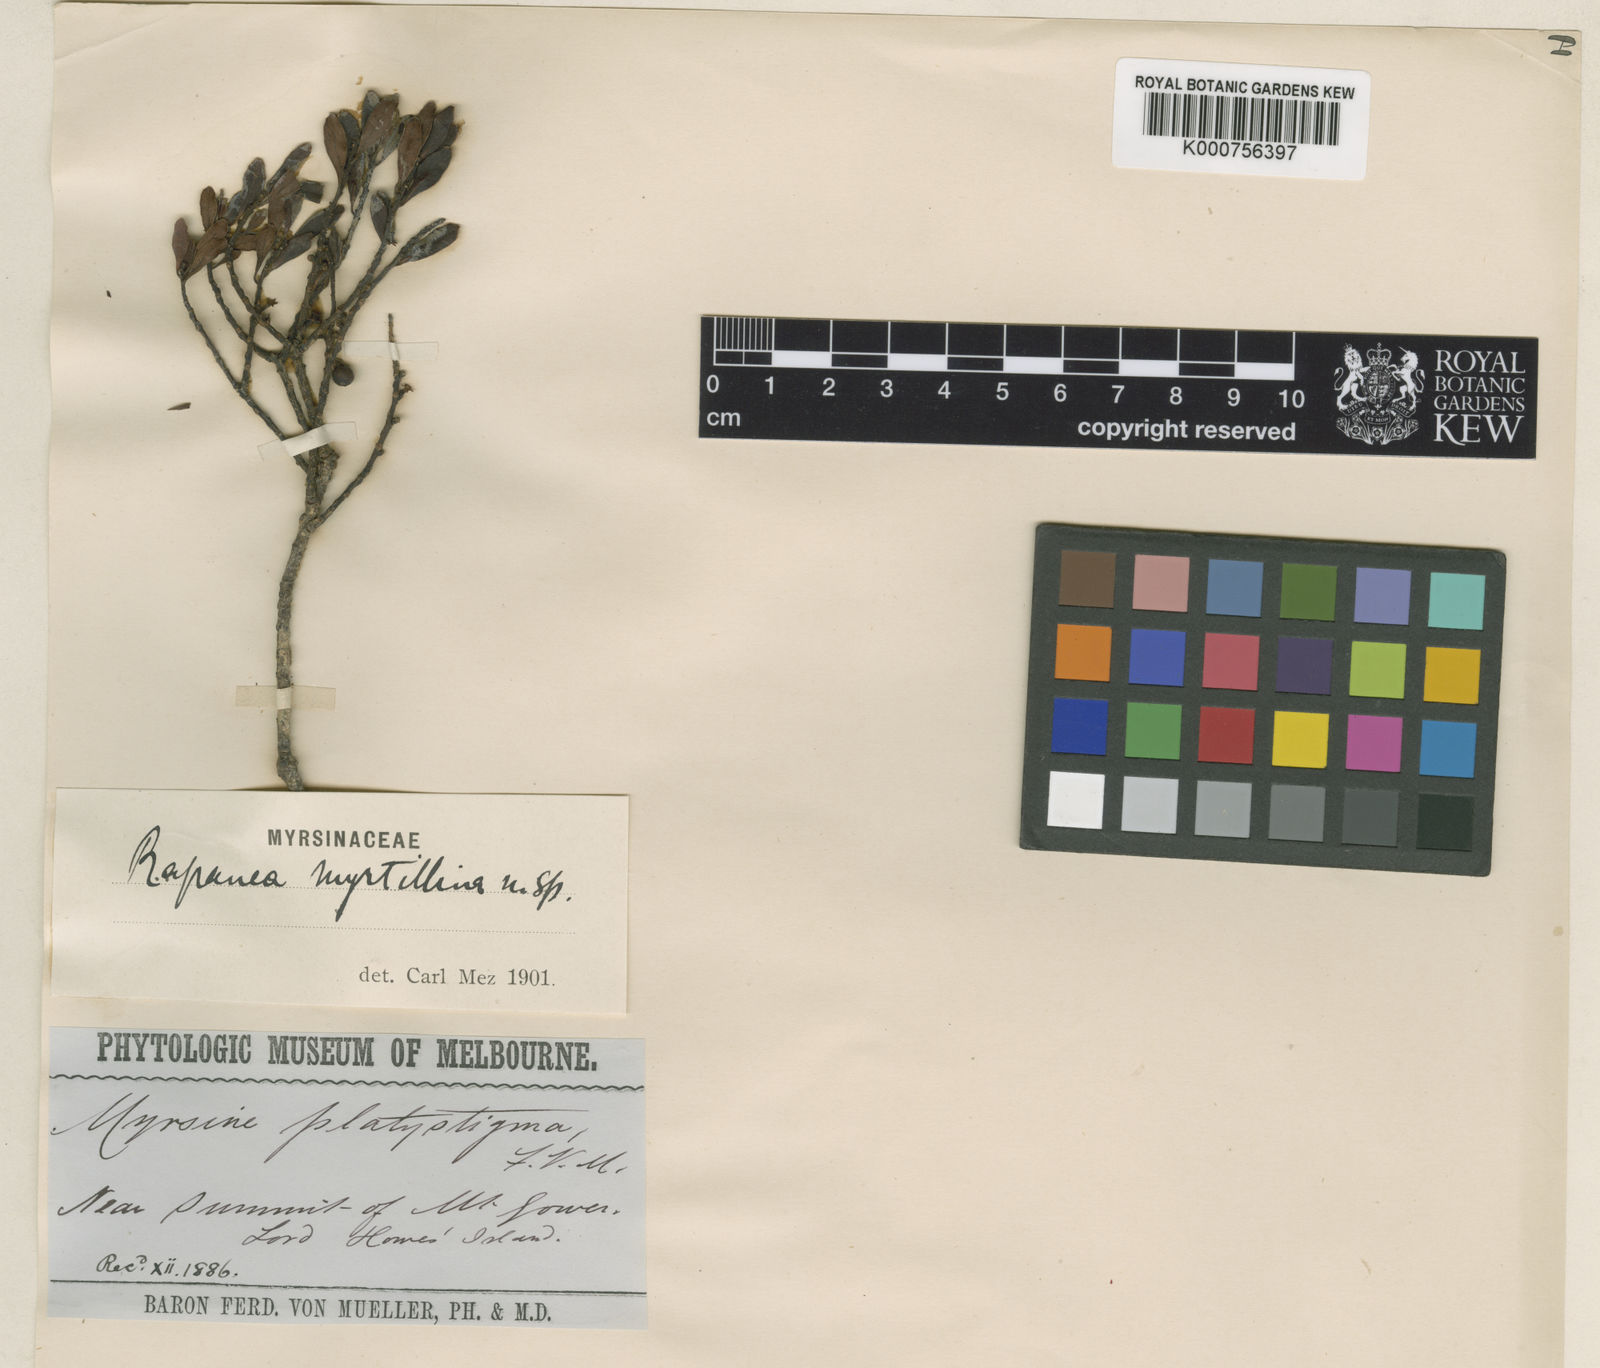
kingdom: Plantae
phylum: Tracheophyta
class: Magnoliopsida
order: Ericales
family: Primulaceae
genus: Myrsine
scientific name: Myrsine myrtillina
